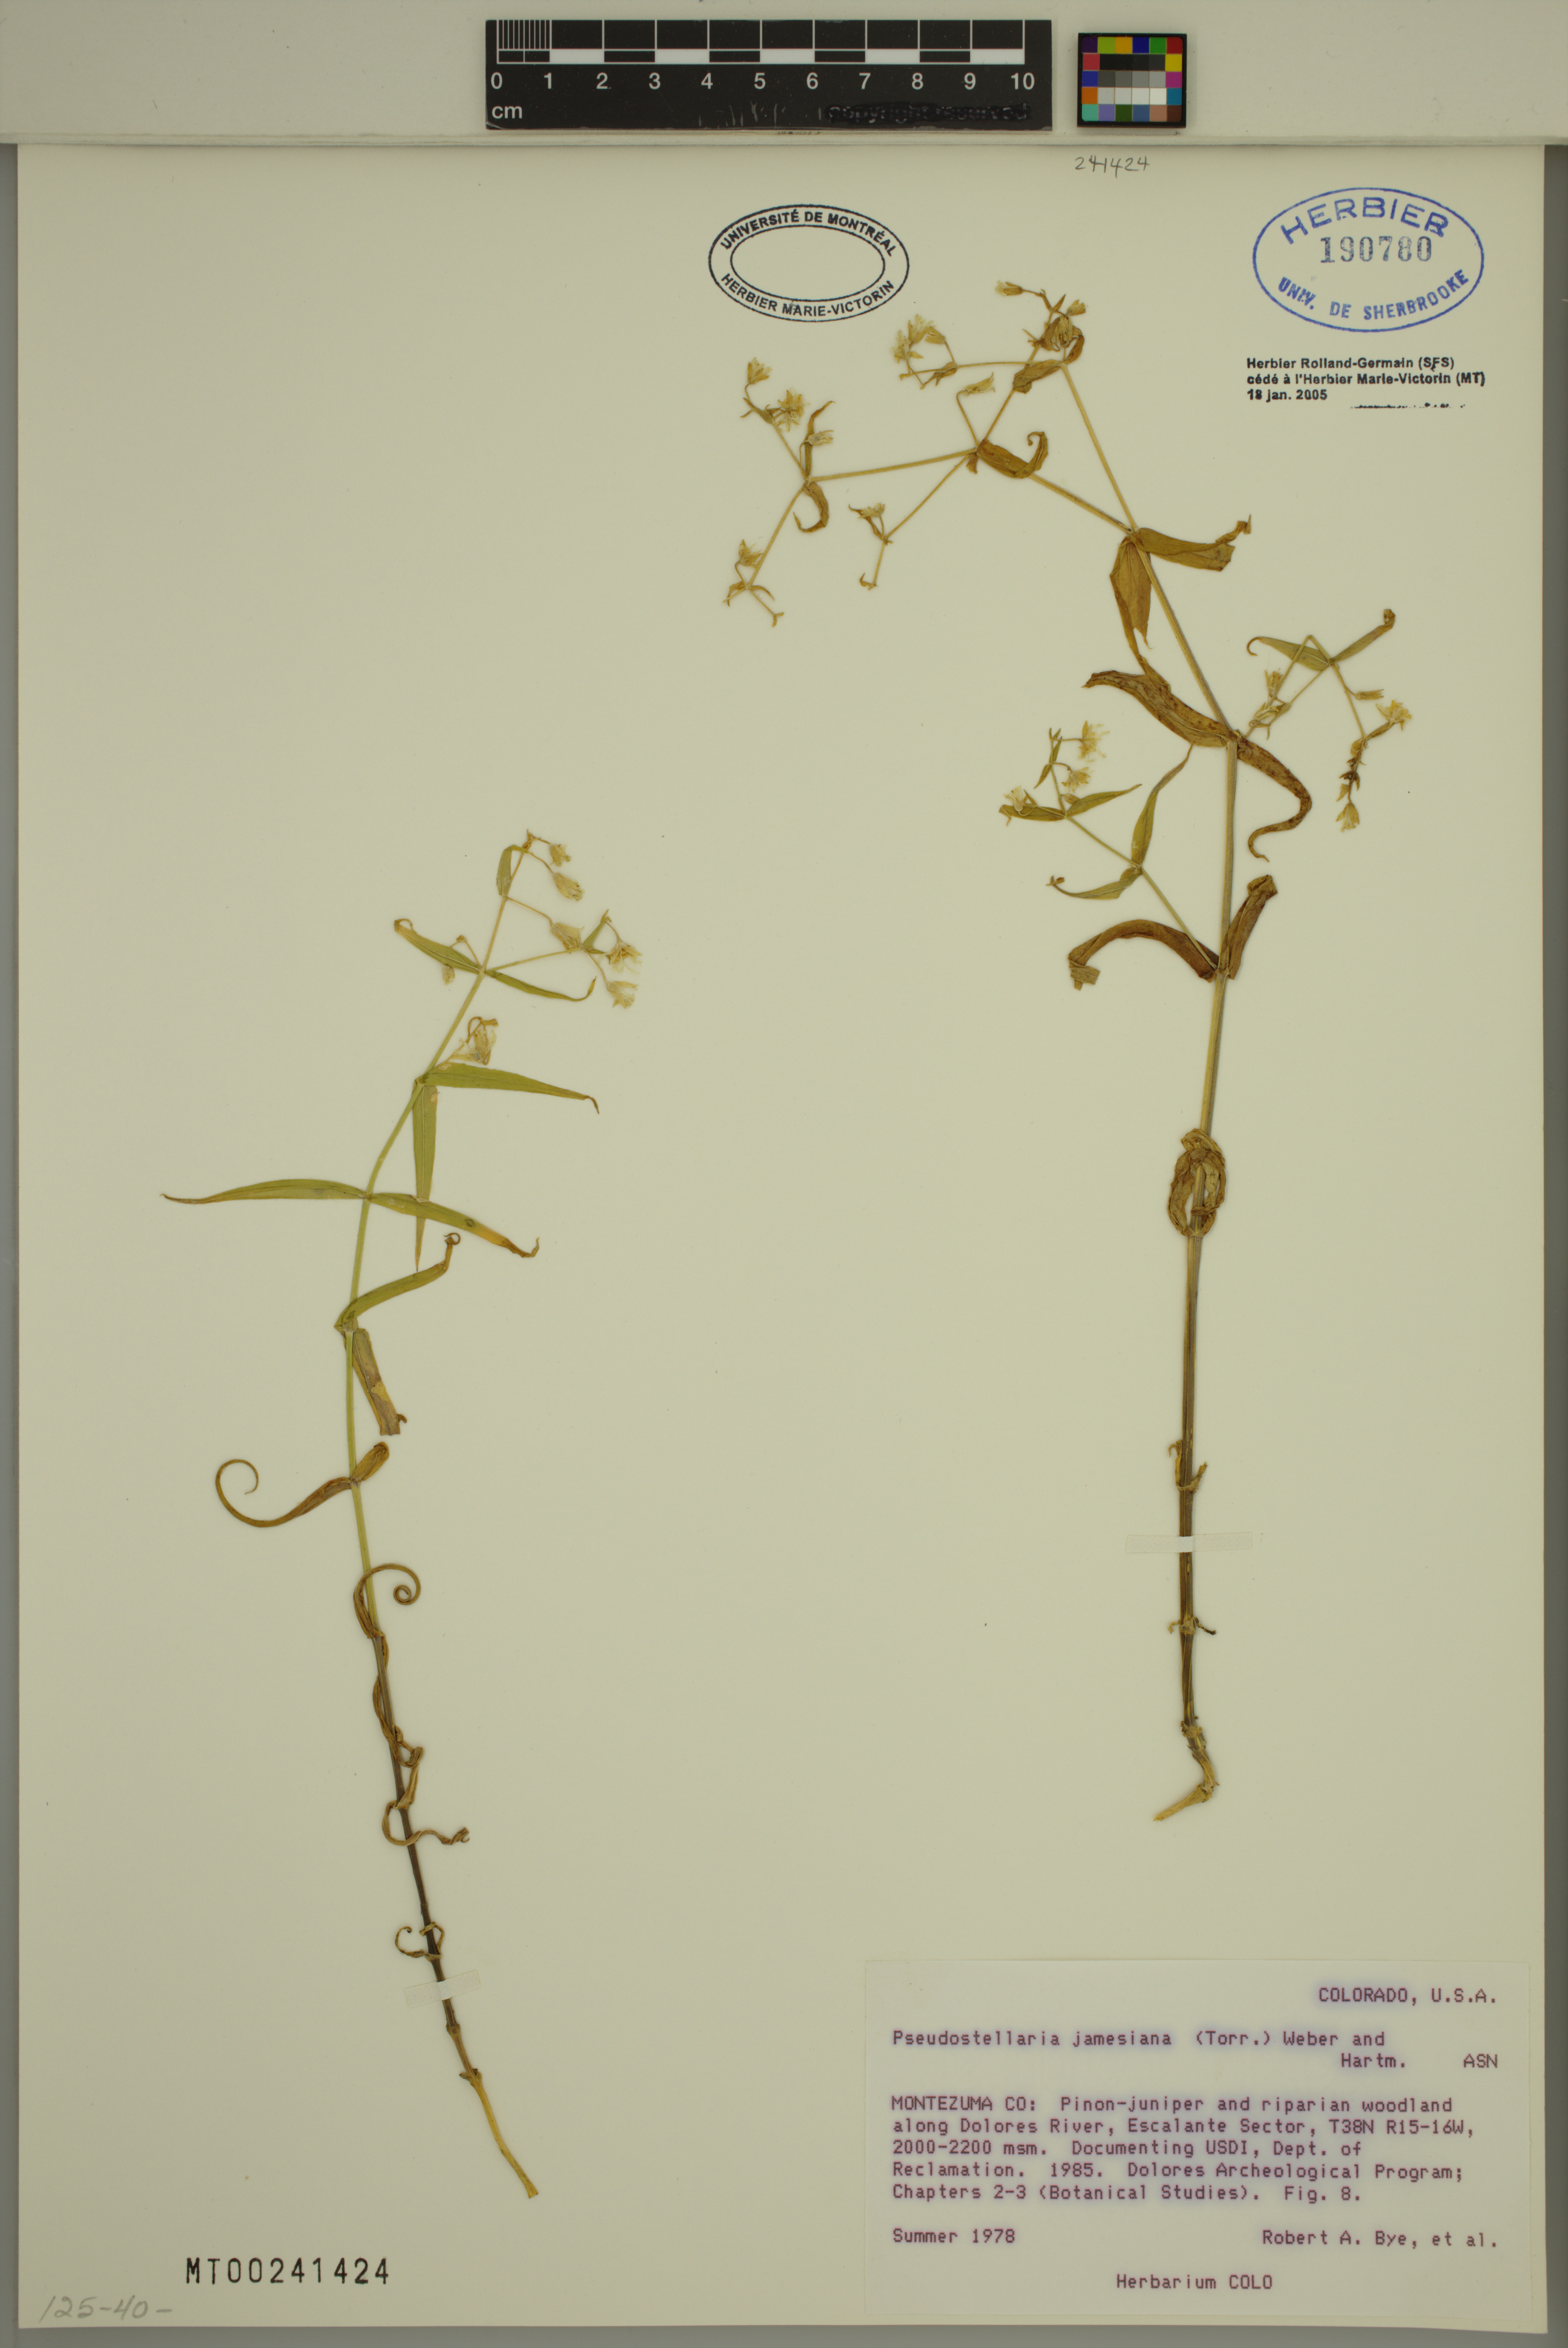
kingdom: Plantae
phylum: Tracheophyta
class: Magnoliopsida
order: Caryophyllales
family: Caryophyllaceae
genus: Schizotechium
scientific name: Schizotechium jamesianum
